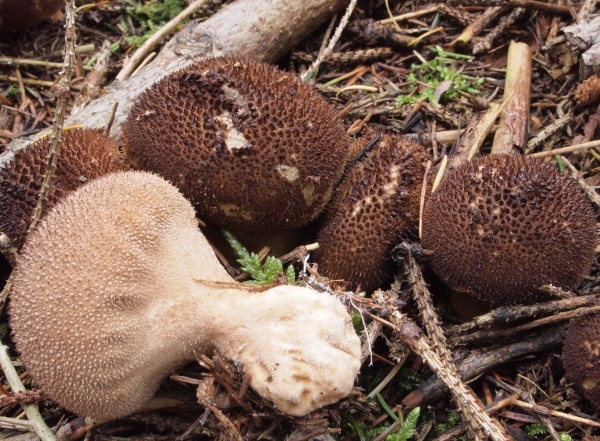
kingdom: Fungi
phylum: Basidiomycota
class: Agaricomycetes
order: Agaricales
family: Lycoperdaceae
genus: Lycoperdon
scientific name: Lycoperdon nigrescens
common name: sortagtig støvbold
